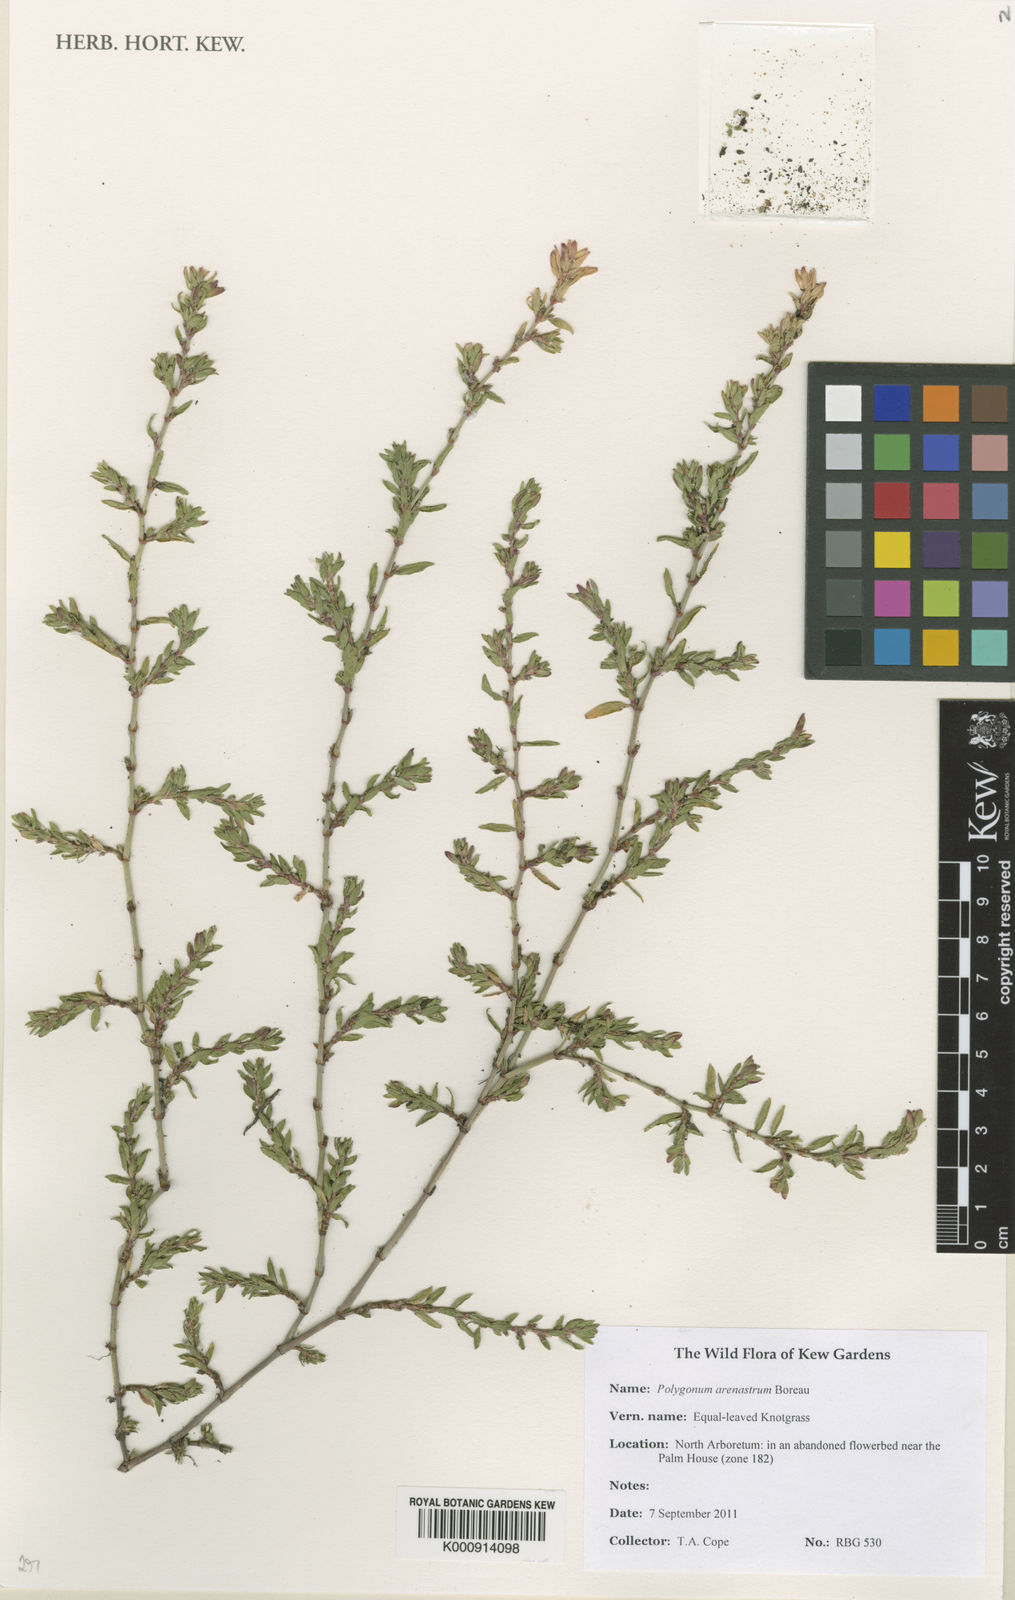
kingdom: Plantae
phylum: Tracheophyta
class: Magnoliopsida
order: Caryophyllales
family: Polygonaceae
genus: Polygonum
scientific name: Polygonum arenastrum
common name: Equal-leaved knotgrass
